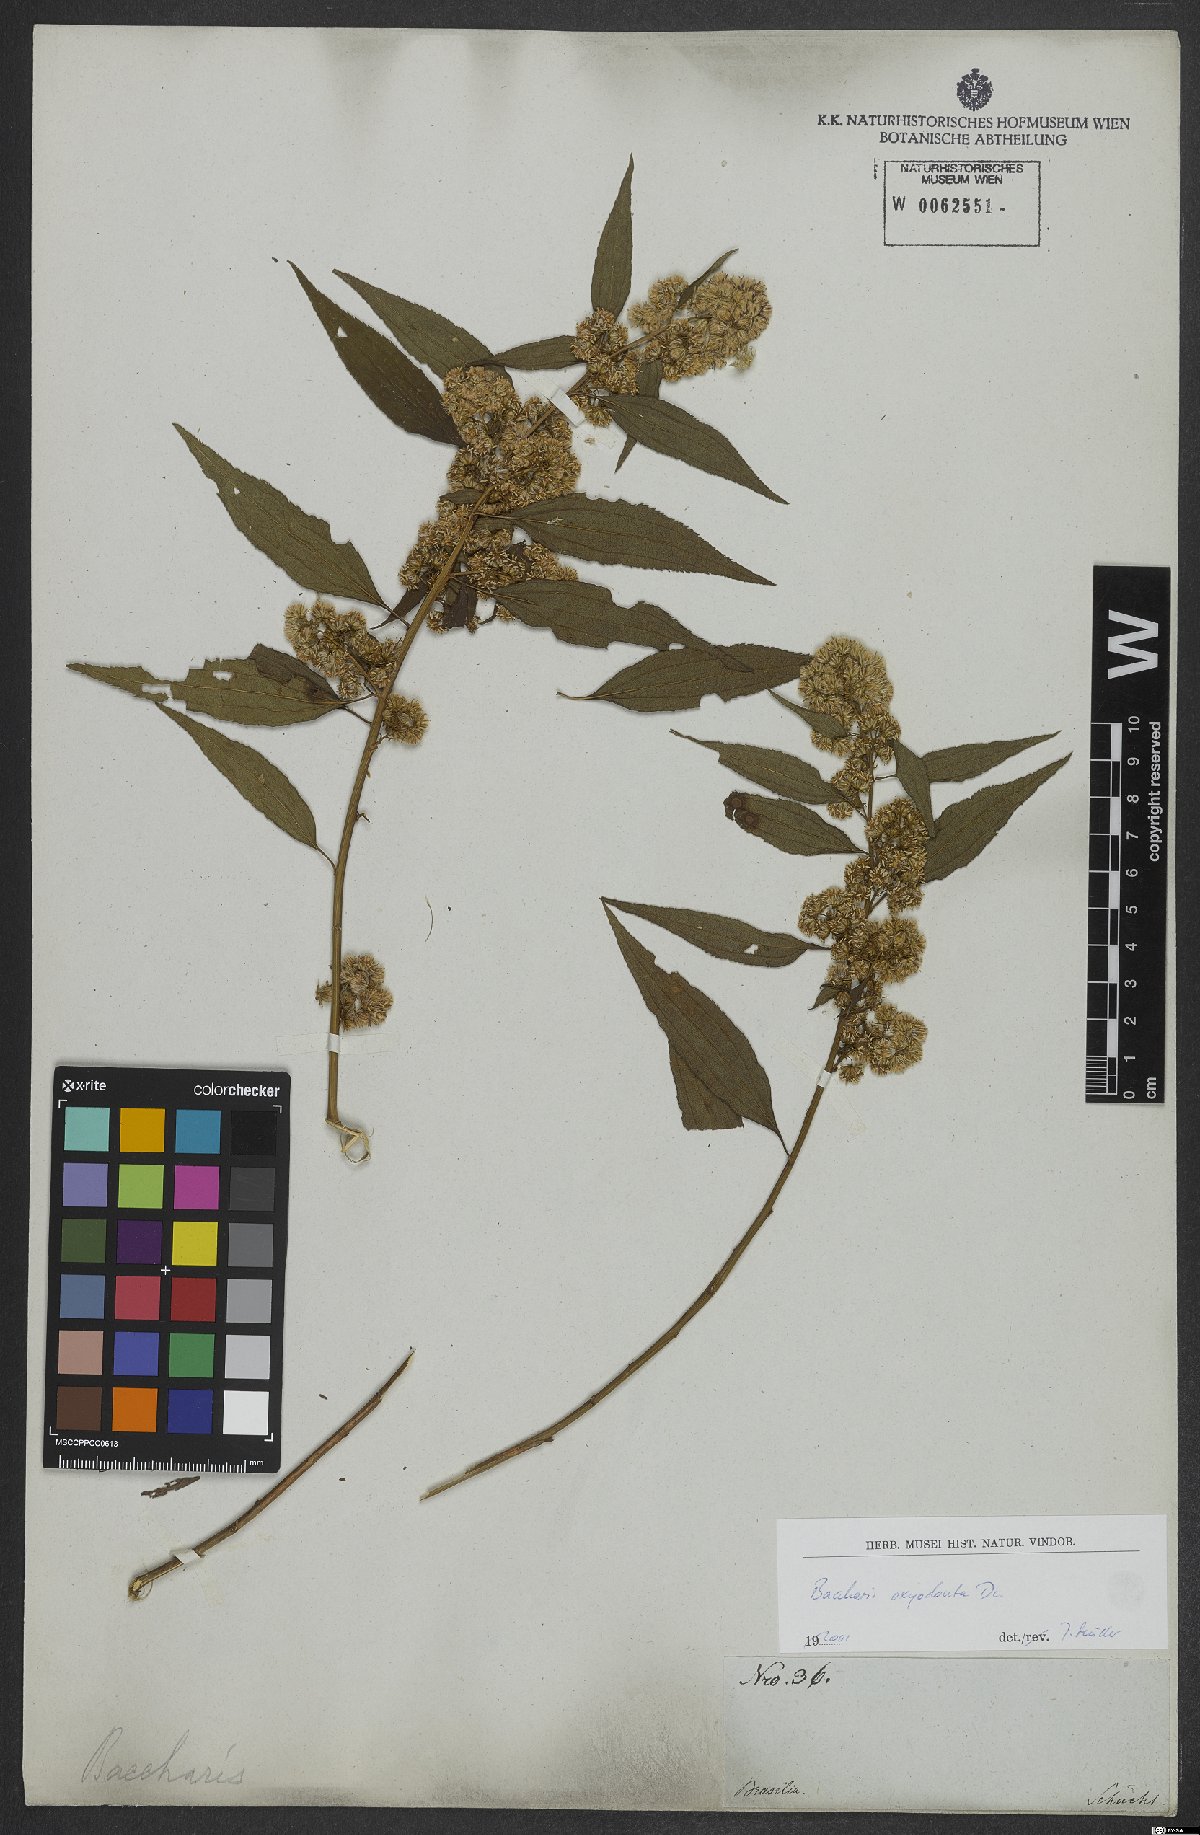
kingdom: Plantae
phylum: Tracheophyta
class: Magnoliopsida
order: Asterales
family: Asteraceae
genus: Baccharis
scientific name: Baccharis oxyodonta
